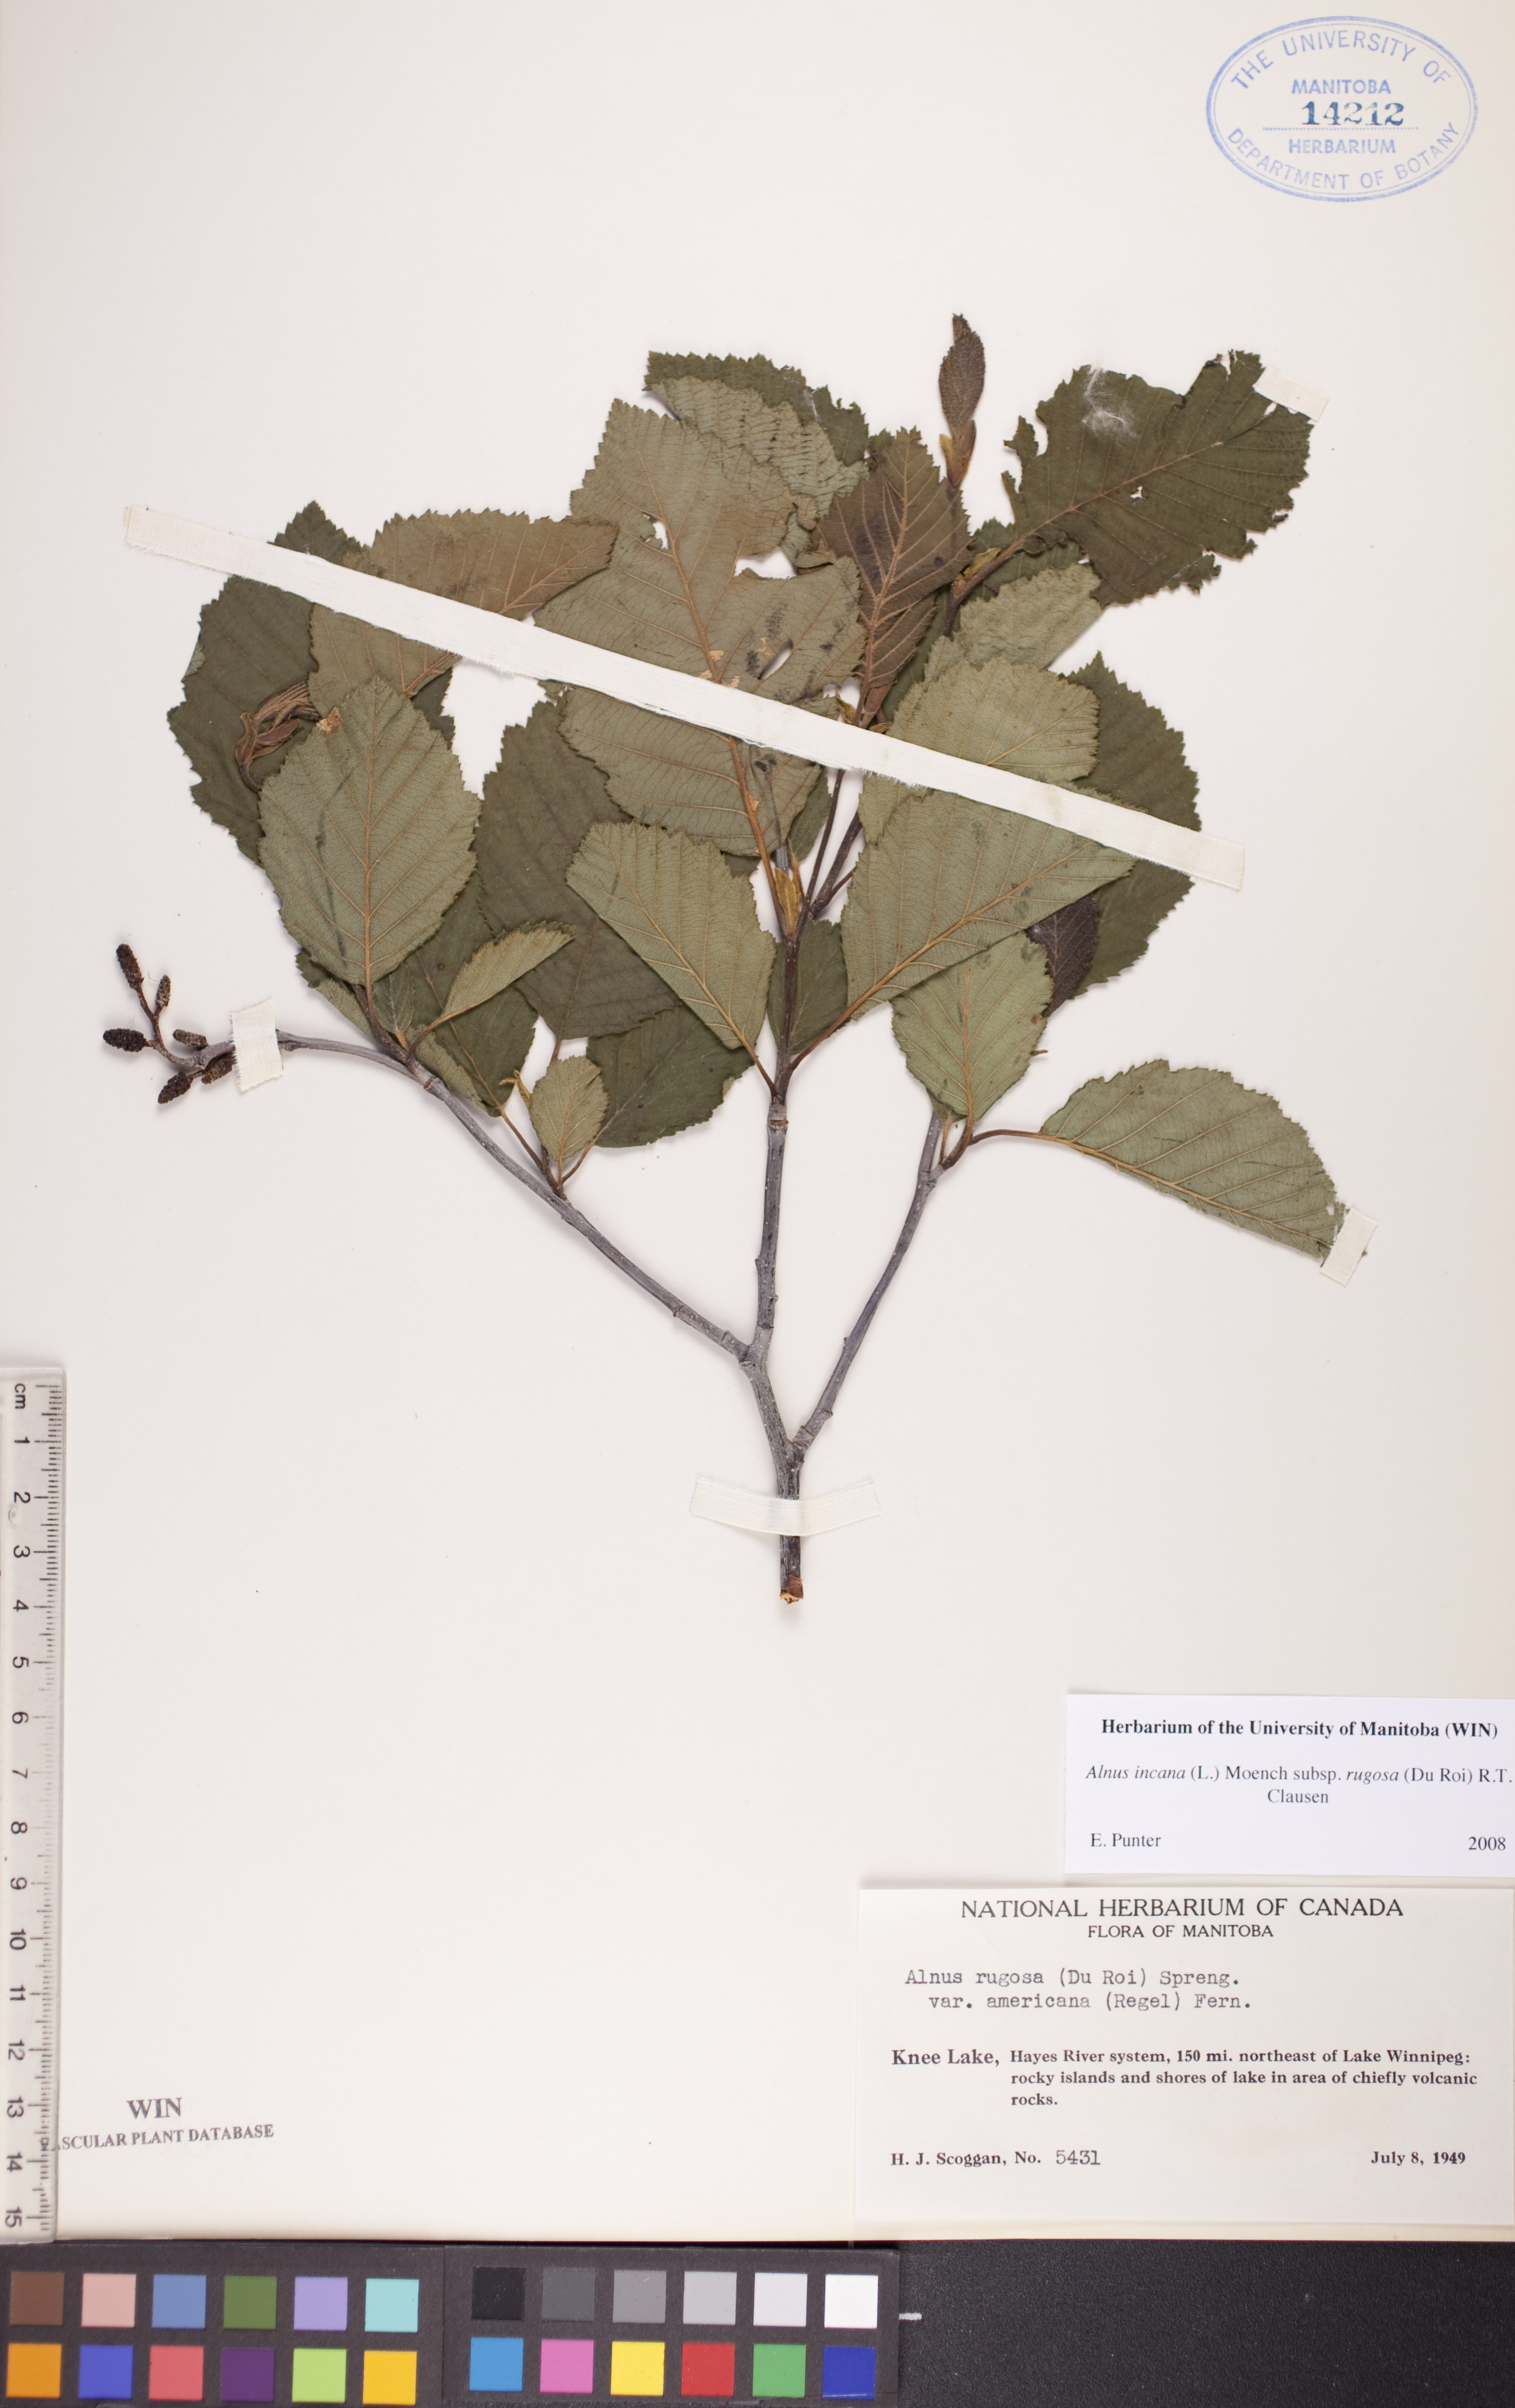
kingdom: Plantae
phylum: Tracheophyta
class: Magnoliopsida
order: Fagales
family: Betulaceae
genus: Alnus
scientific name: Alnus incana
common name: Grey alder
